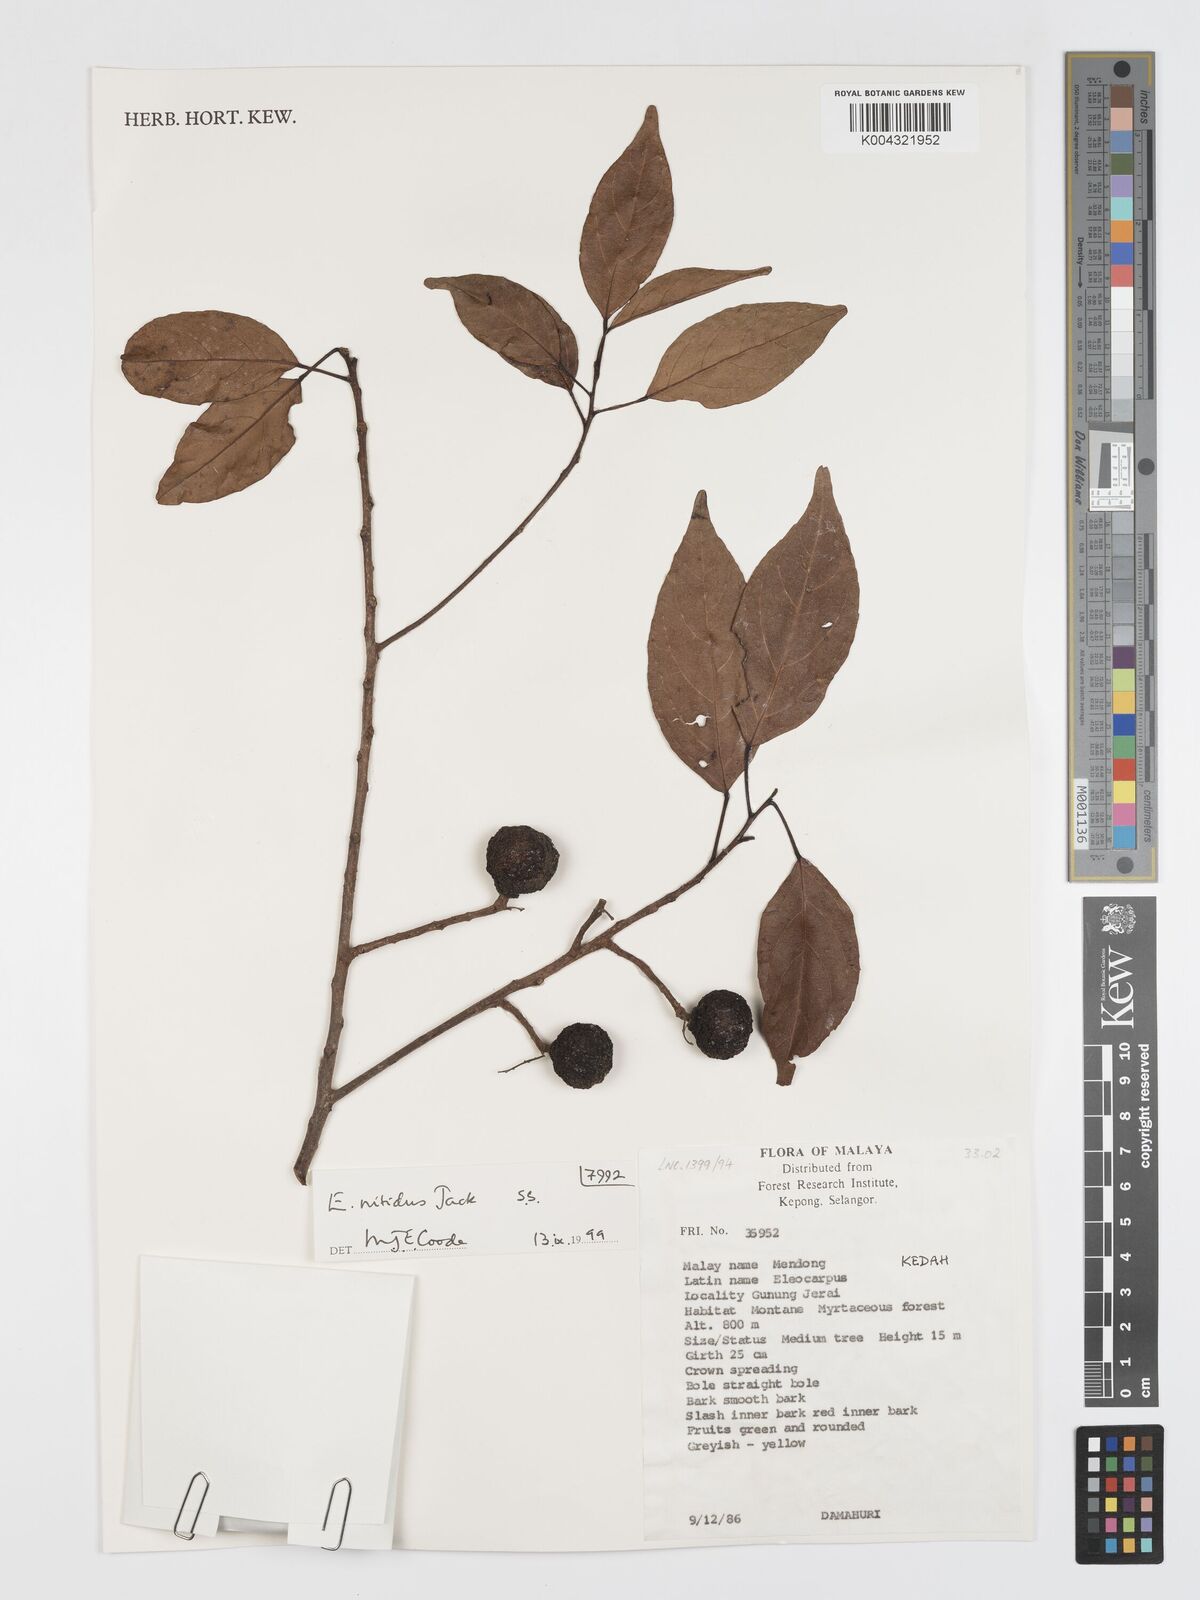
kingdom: Plantae
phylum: Tracheophyta
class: Magnoliopsida
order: Oxalidales
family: Elaeocarpaceae
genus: Elaeocarpus
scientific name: Elaeocarpus nitidus
